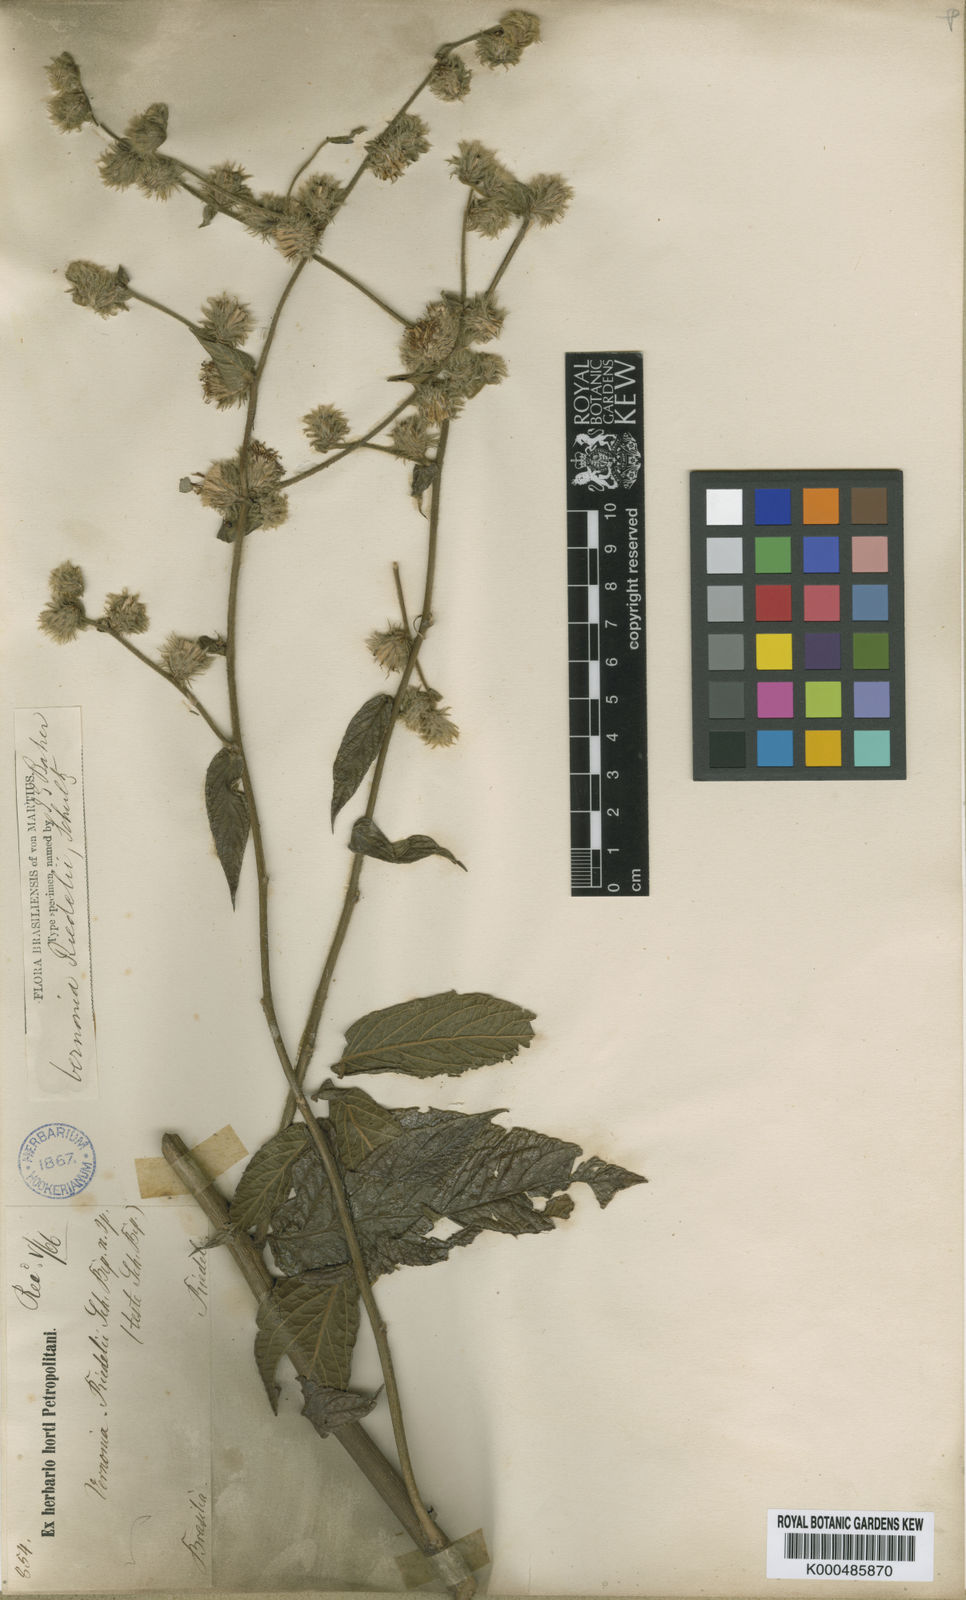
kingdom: Plantae
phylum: Tracheophyta
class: Magnoliopsida
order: Asterales
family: Asteraceae
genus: Lepidaploa
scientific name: Lepidaploa eriolepis
